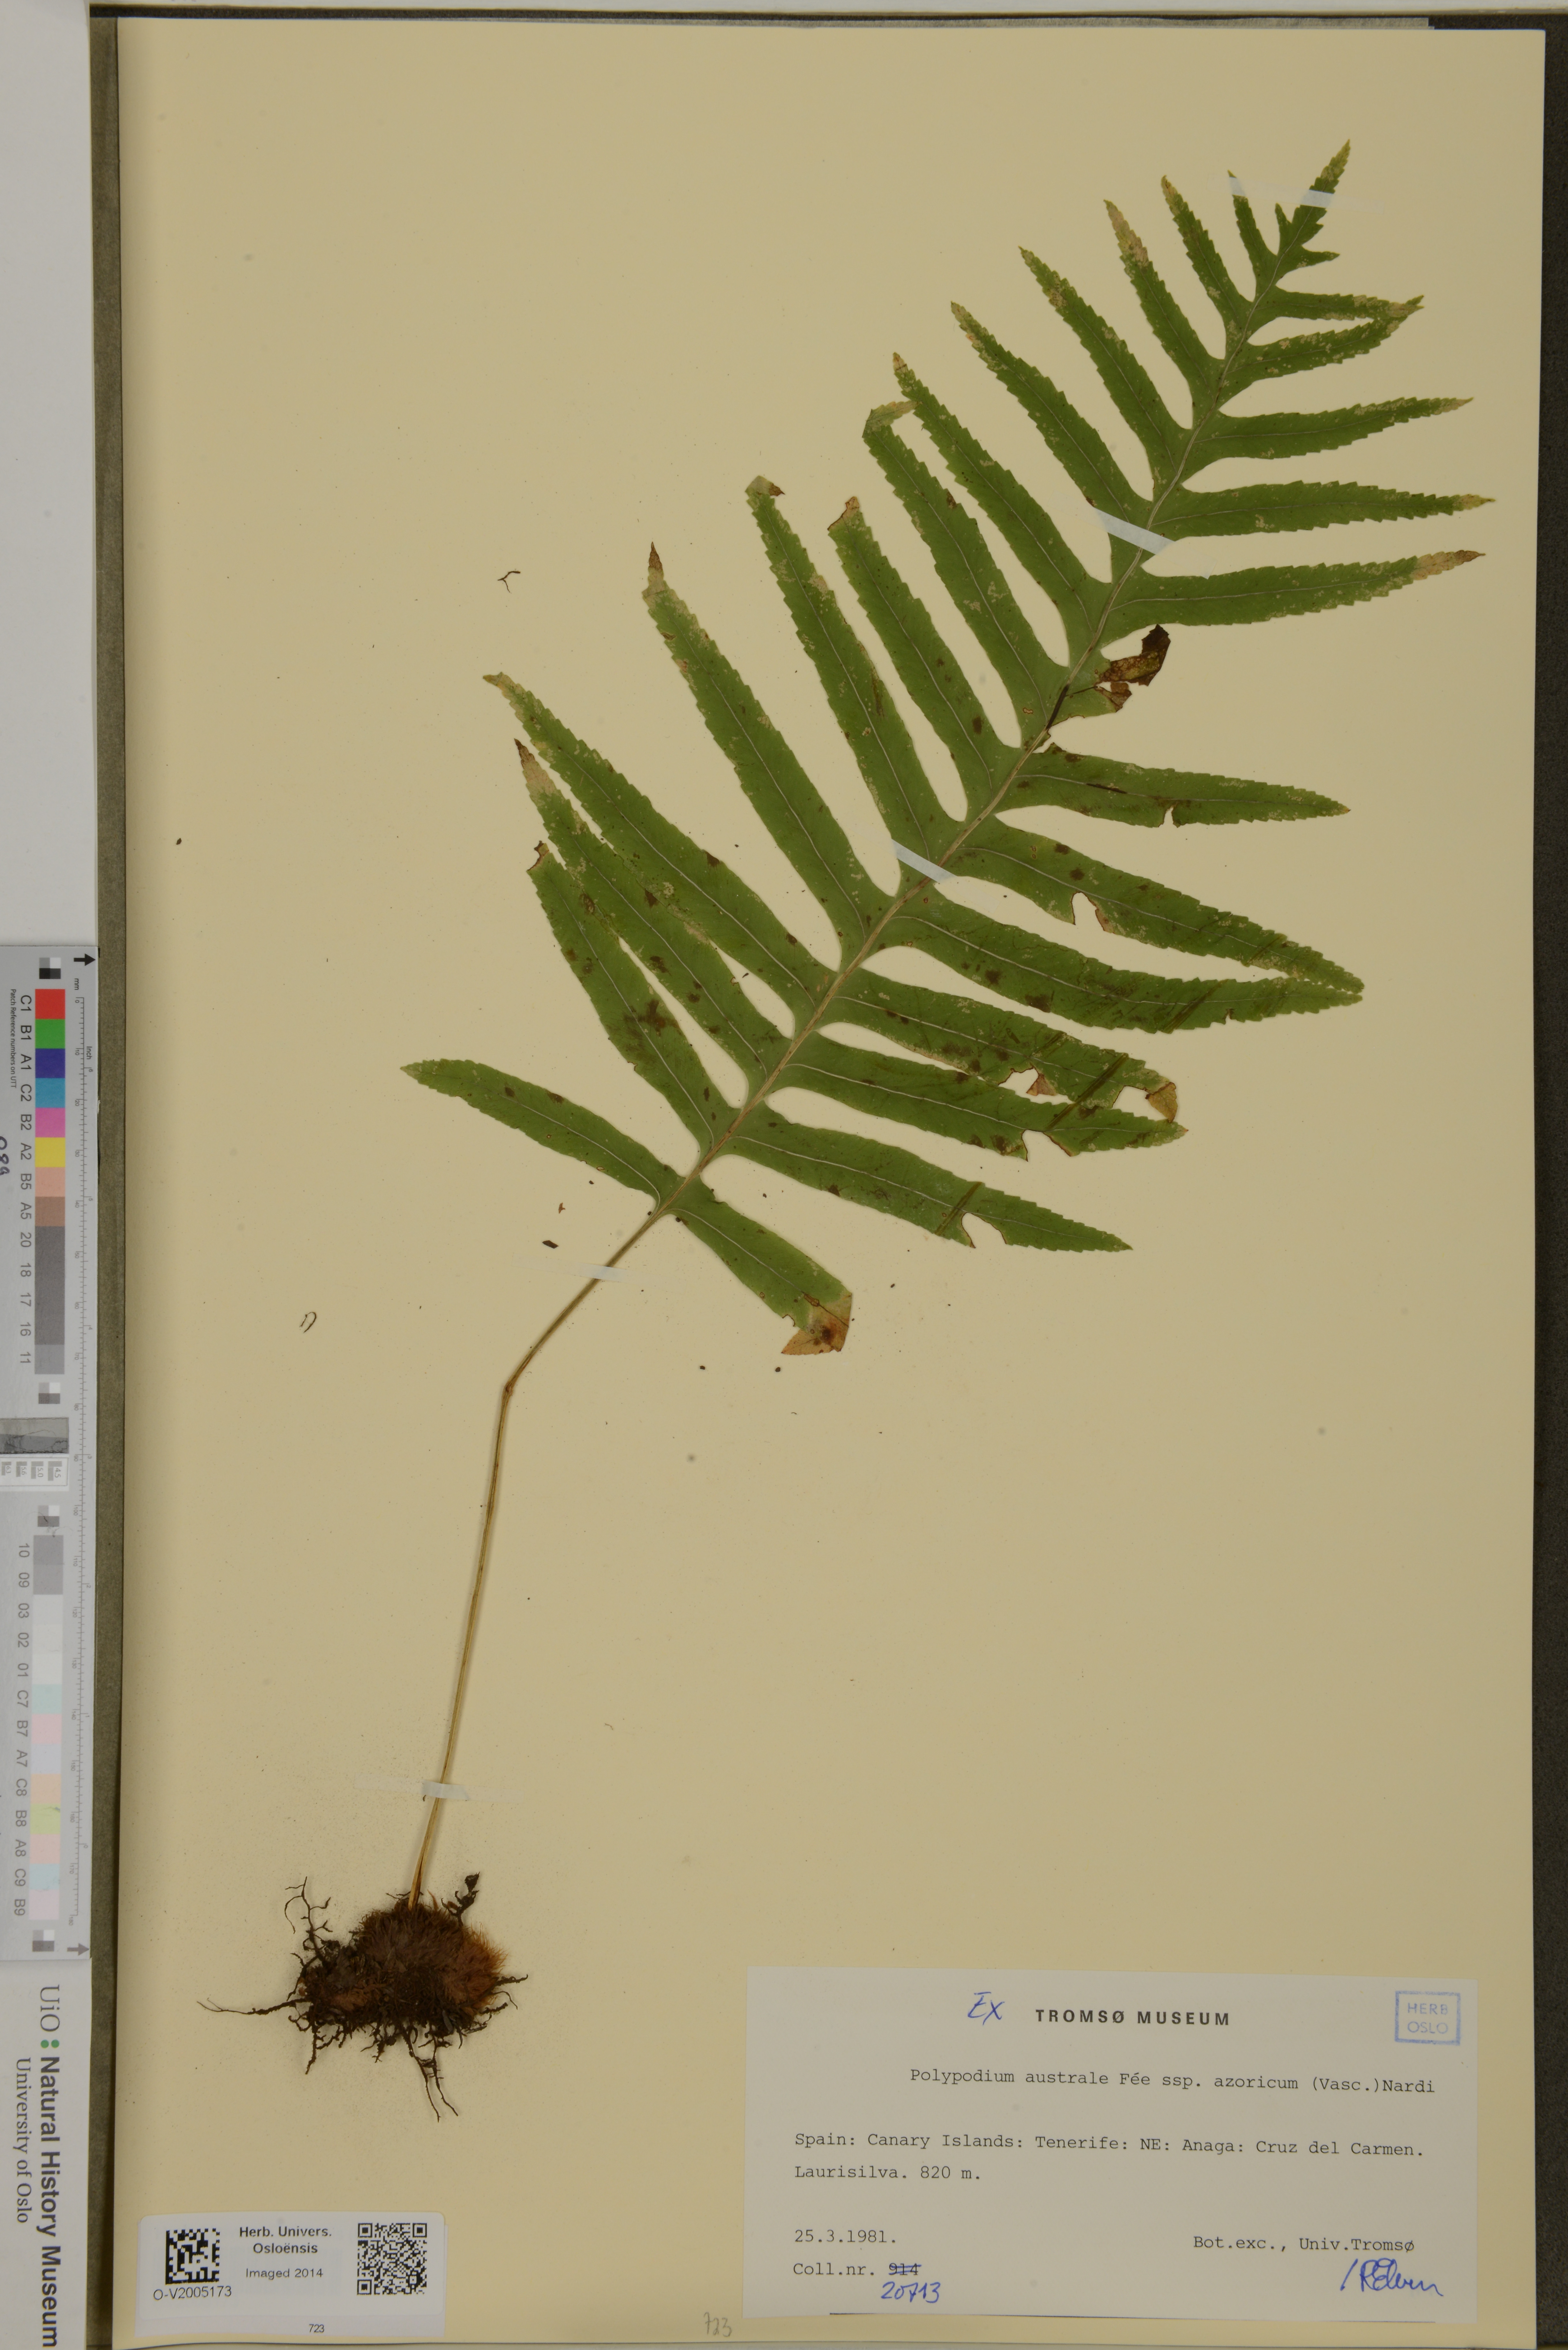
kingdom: Plantae
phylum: Tracheophyta
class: Polypodiopsida
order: Polypodiales
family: Polypodiaceae
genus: Polypodium
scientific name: Polypodium macaronesicum
